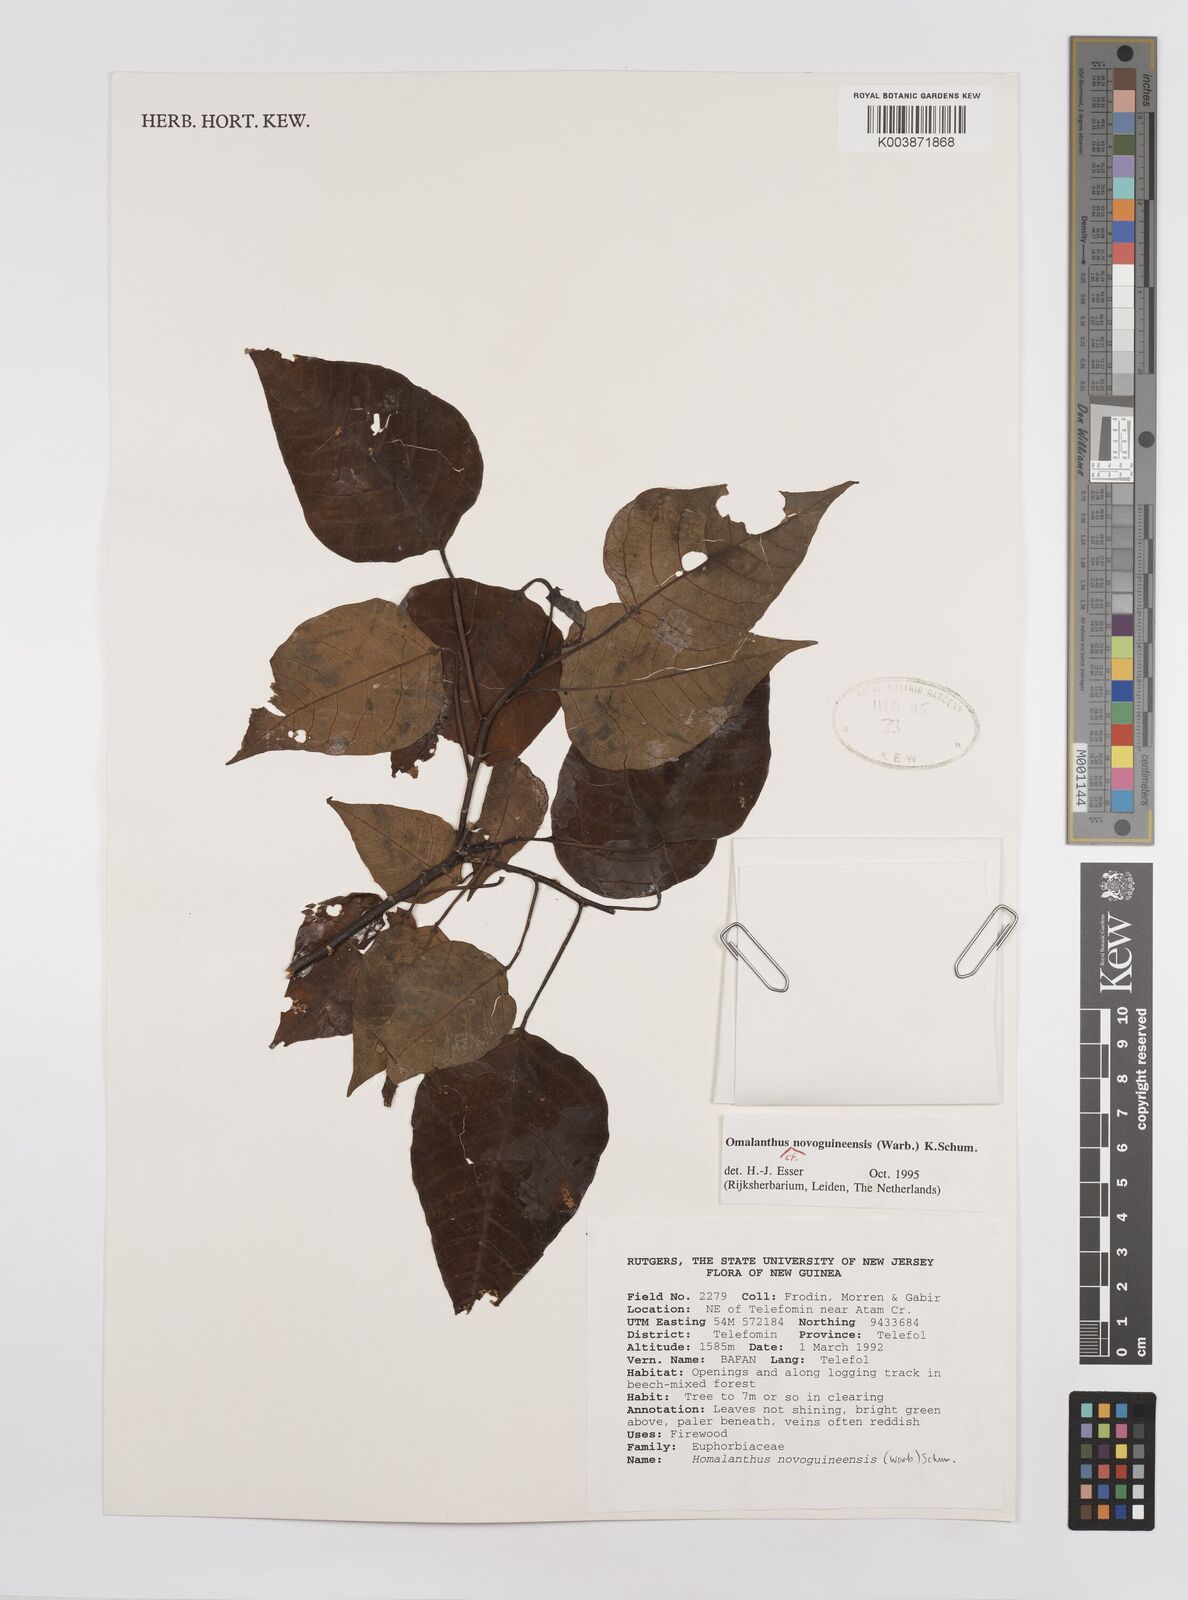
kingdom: Plantae
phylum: Tracheophyta
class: Magnoliopsida
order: Malpighiales
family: Euphorbiaceae
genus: Homalanthus
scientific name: Homalanthus novoguineensis
